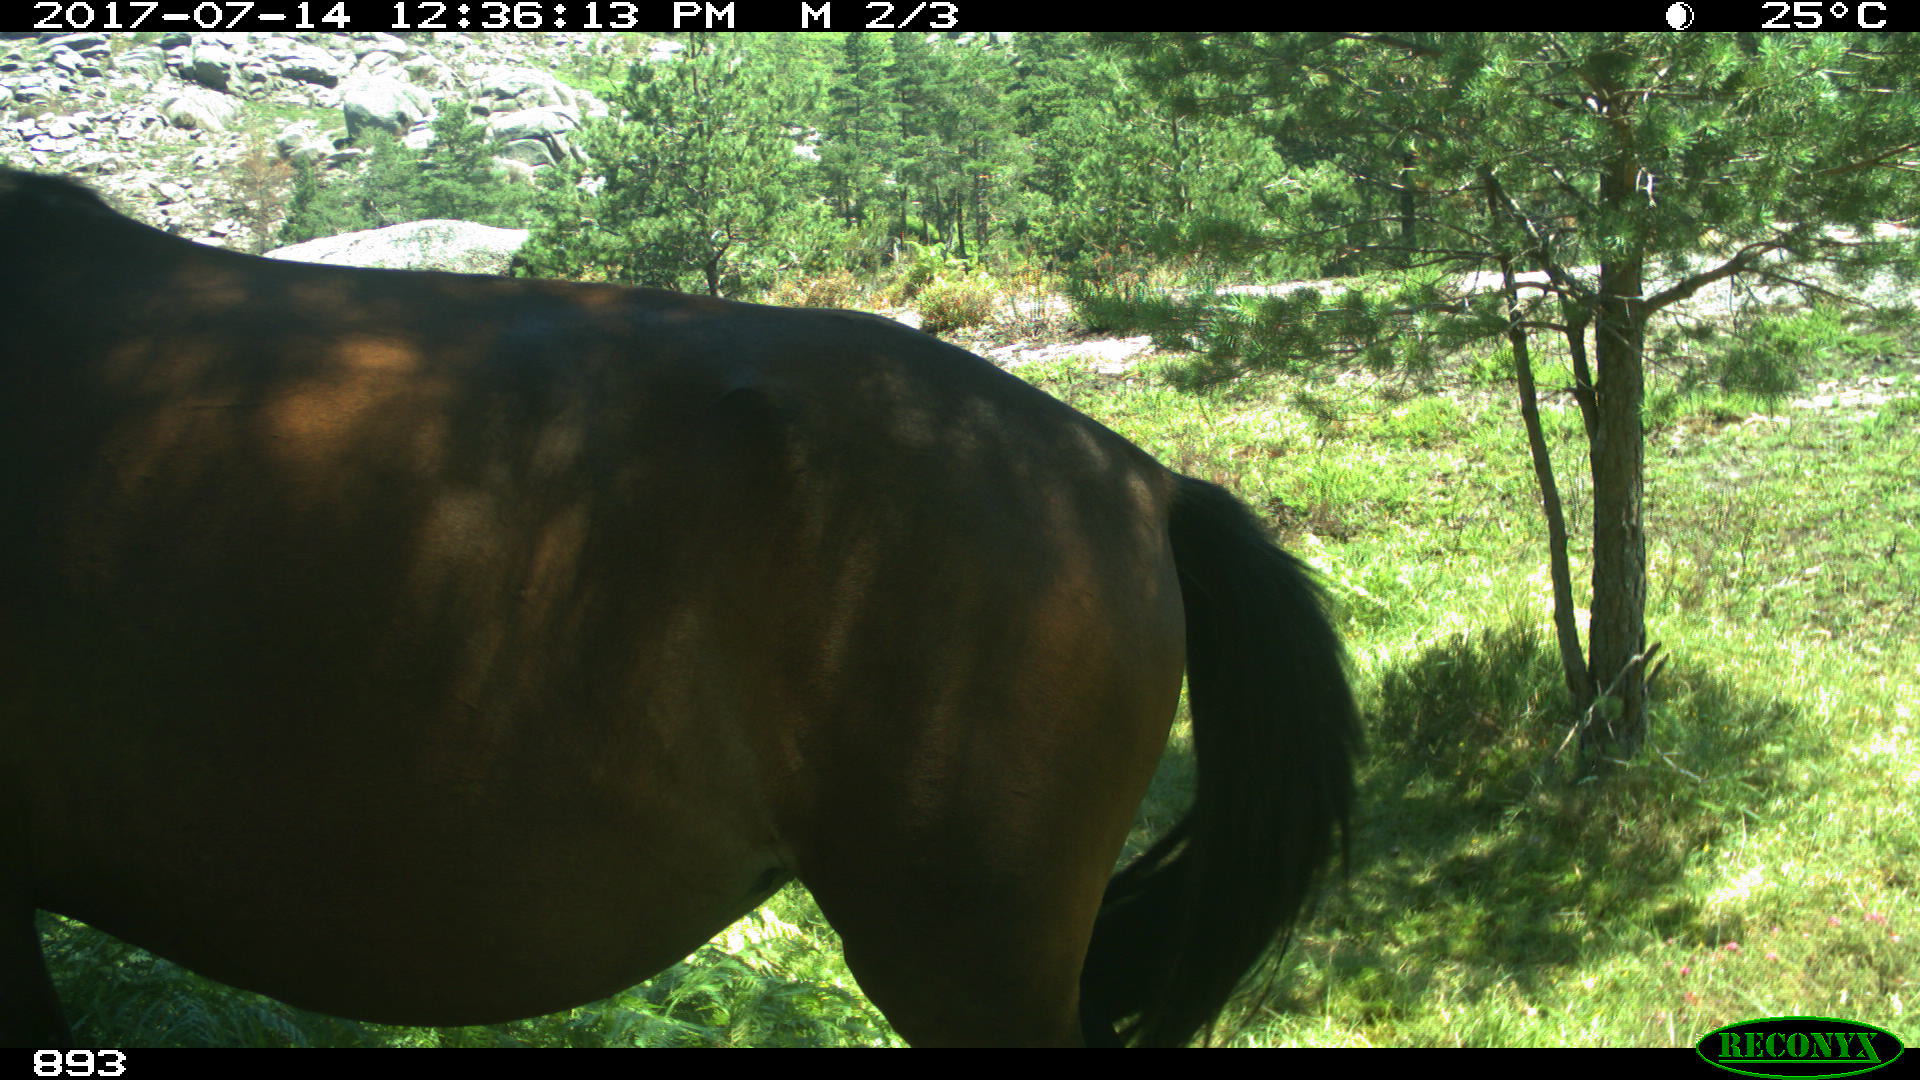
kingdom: Animalia
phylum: Chordata
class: Mammalia
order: Perissodactyla
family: Equidae
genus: Equus
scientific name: Equus caballus
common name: Horse
